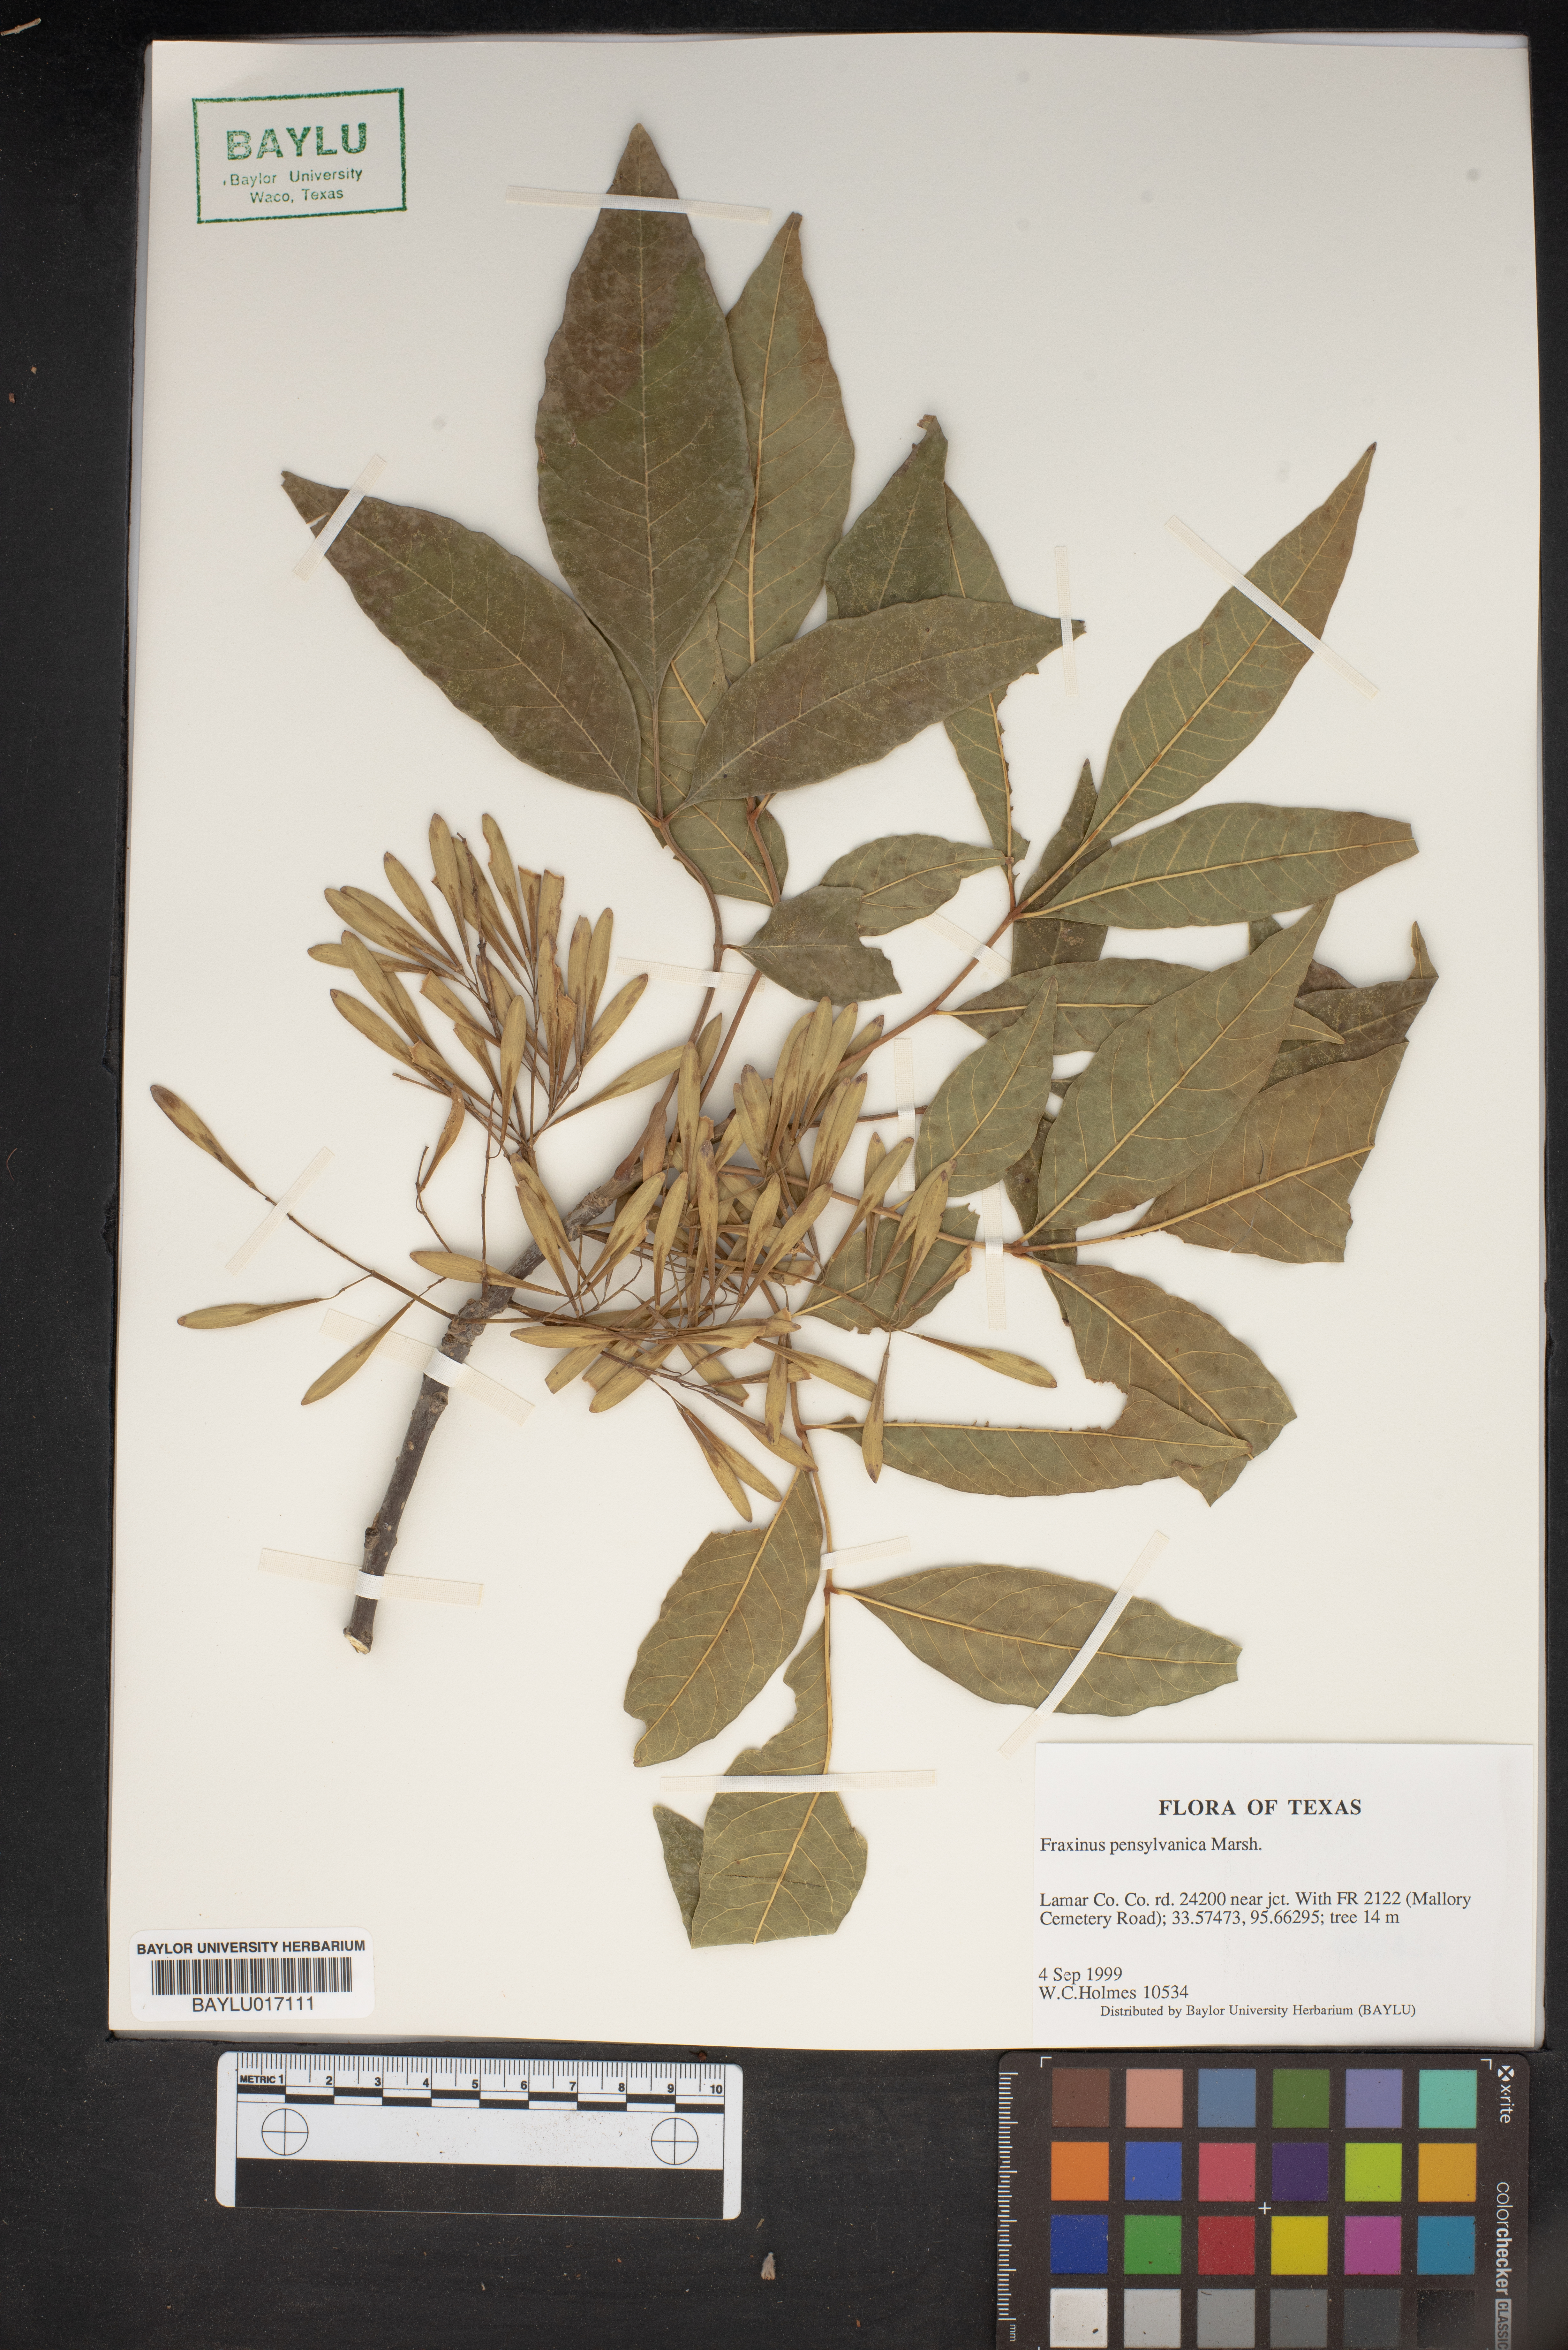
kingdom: Plantae
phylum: Tracheophyta
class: Magnoliopsida
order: Lamiales
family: Oleaceae
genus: Fraxinus
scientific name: Fraxinus pennsylvanica
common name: Green ash
